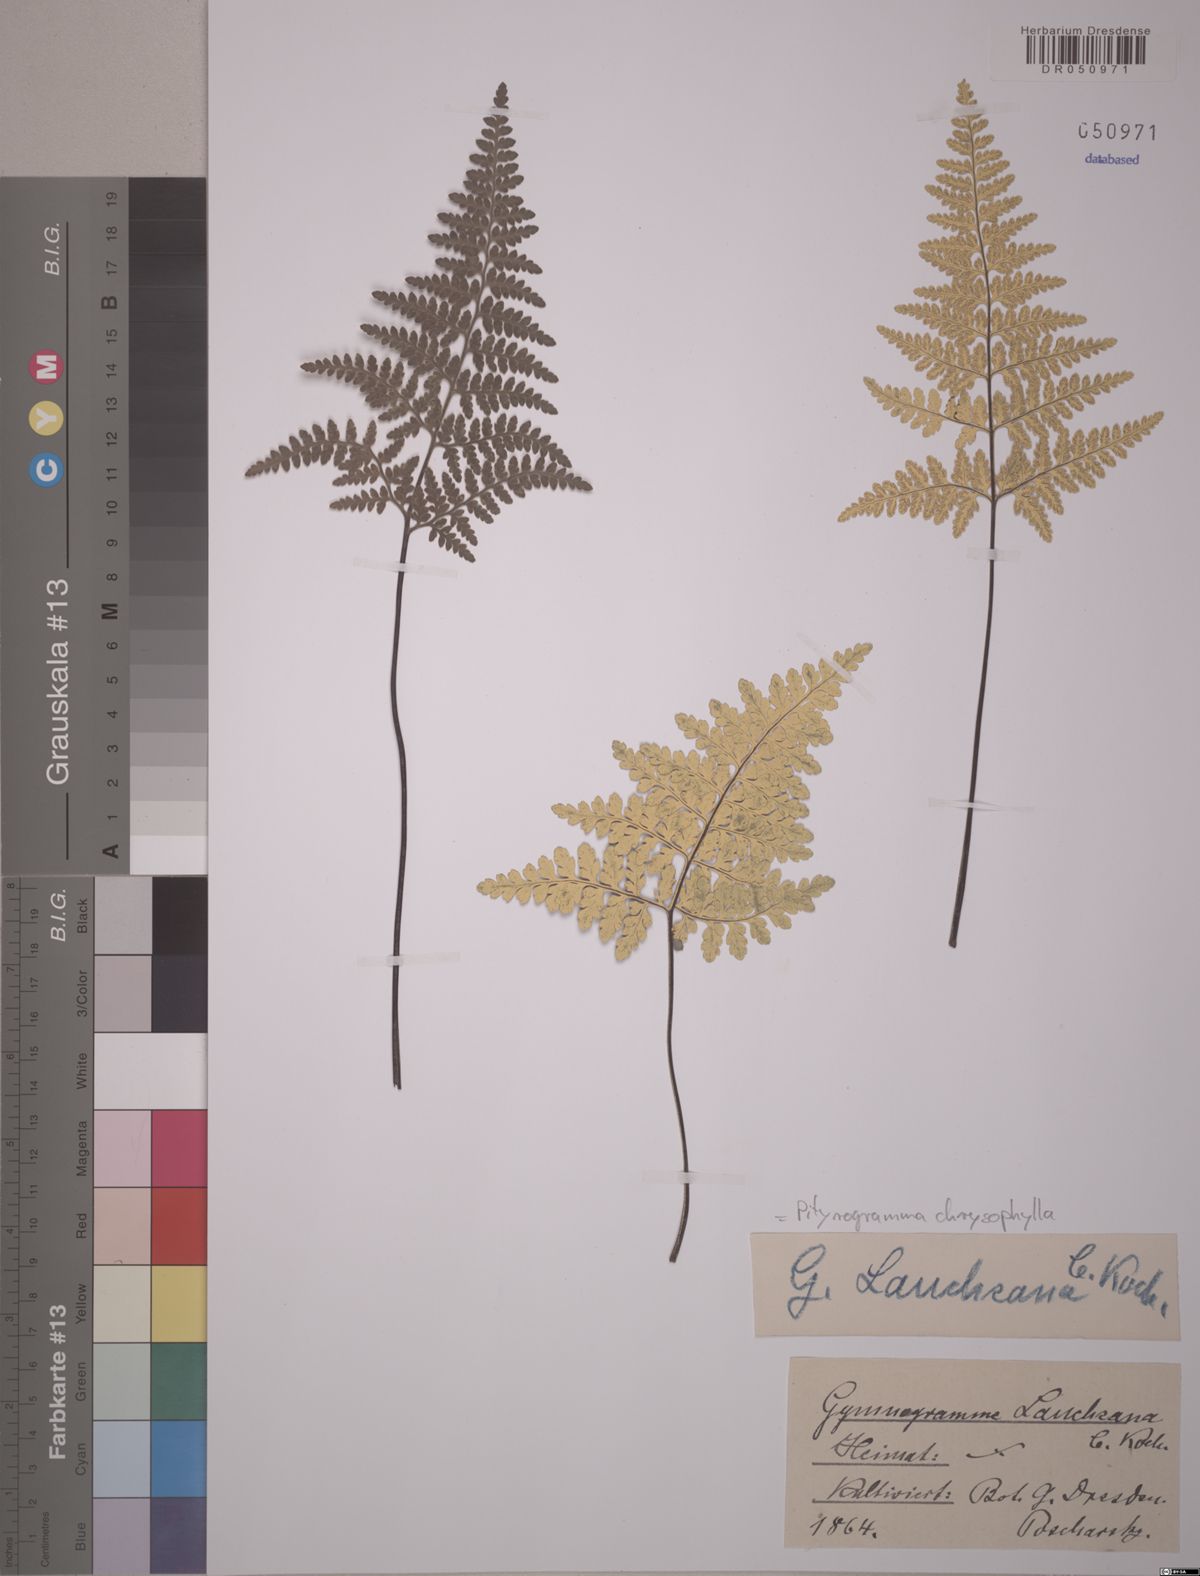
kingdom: Plantae
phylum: Tracheophyta
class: Polypodiopsida
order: Polypodiales
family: Pteridaceae
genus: Pityrogramma
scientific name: Pityrogramma chrysophylla
